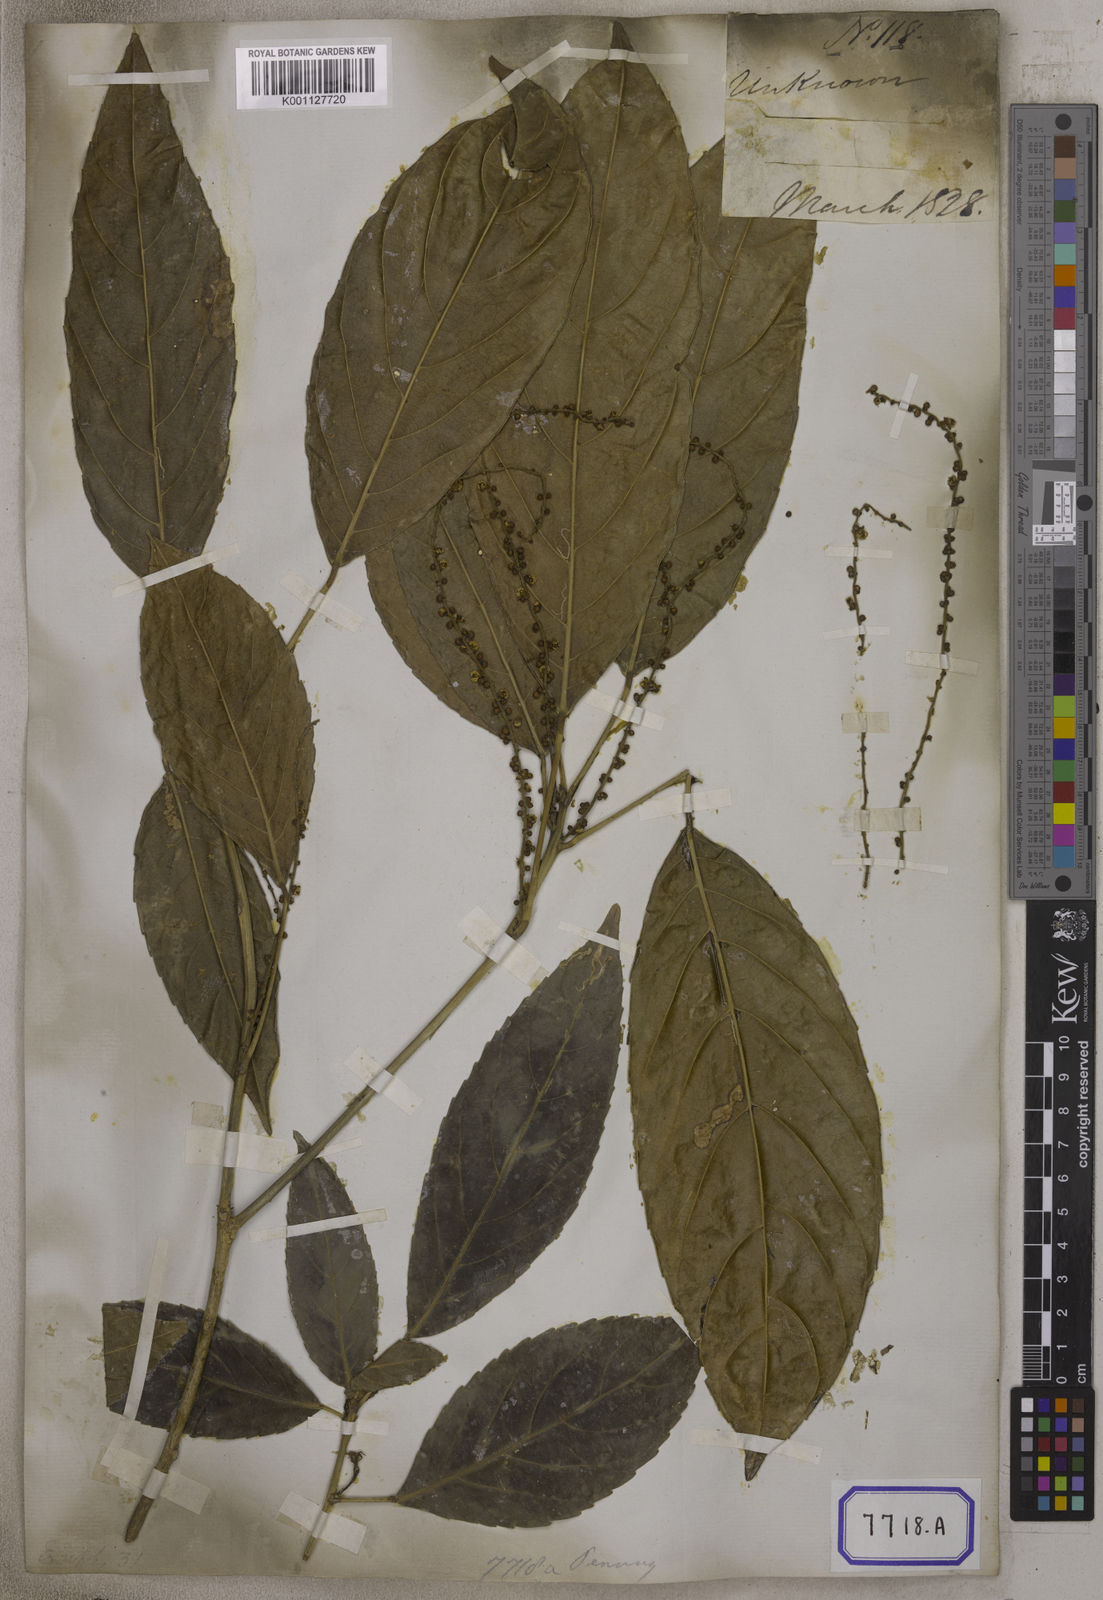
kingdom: Plantae
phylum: Tracheophyta
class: Magnoliopsida
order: Malpighiales
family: Euphorbiaceae
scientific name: Euphorbiaceae
